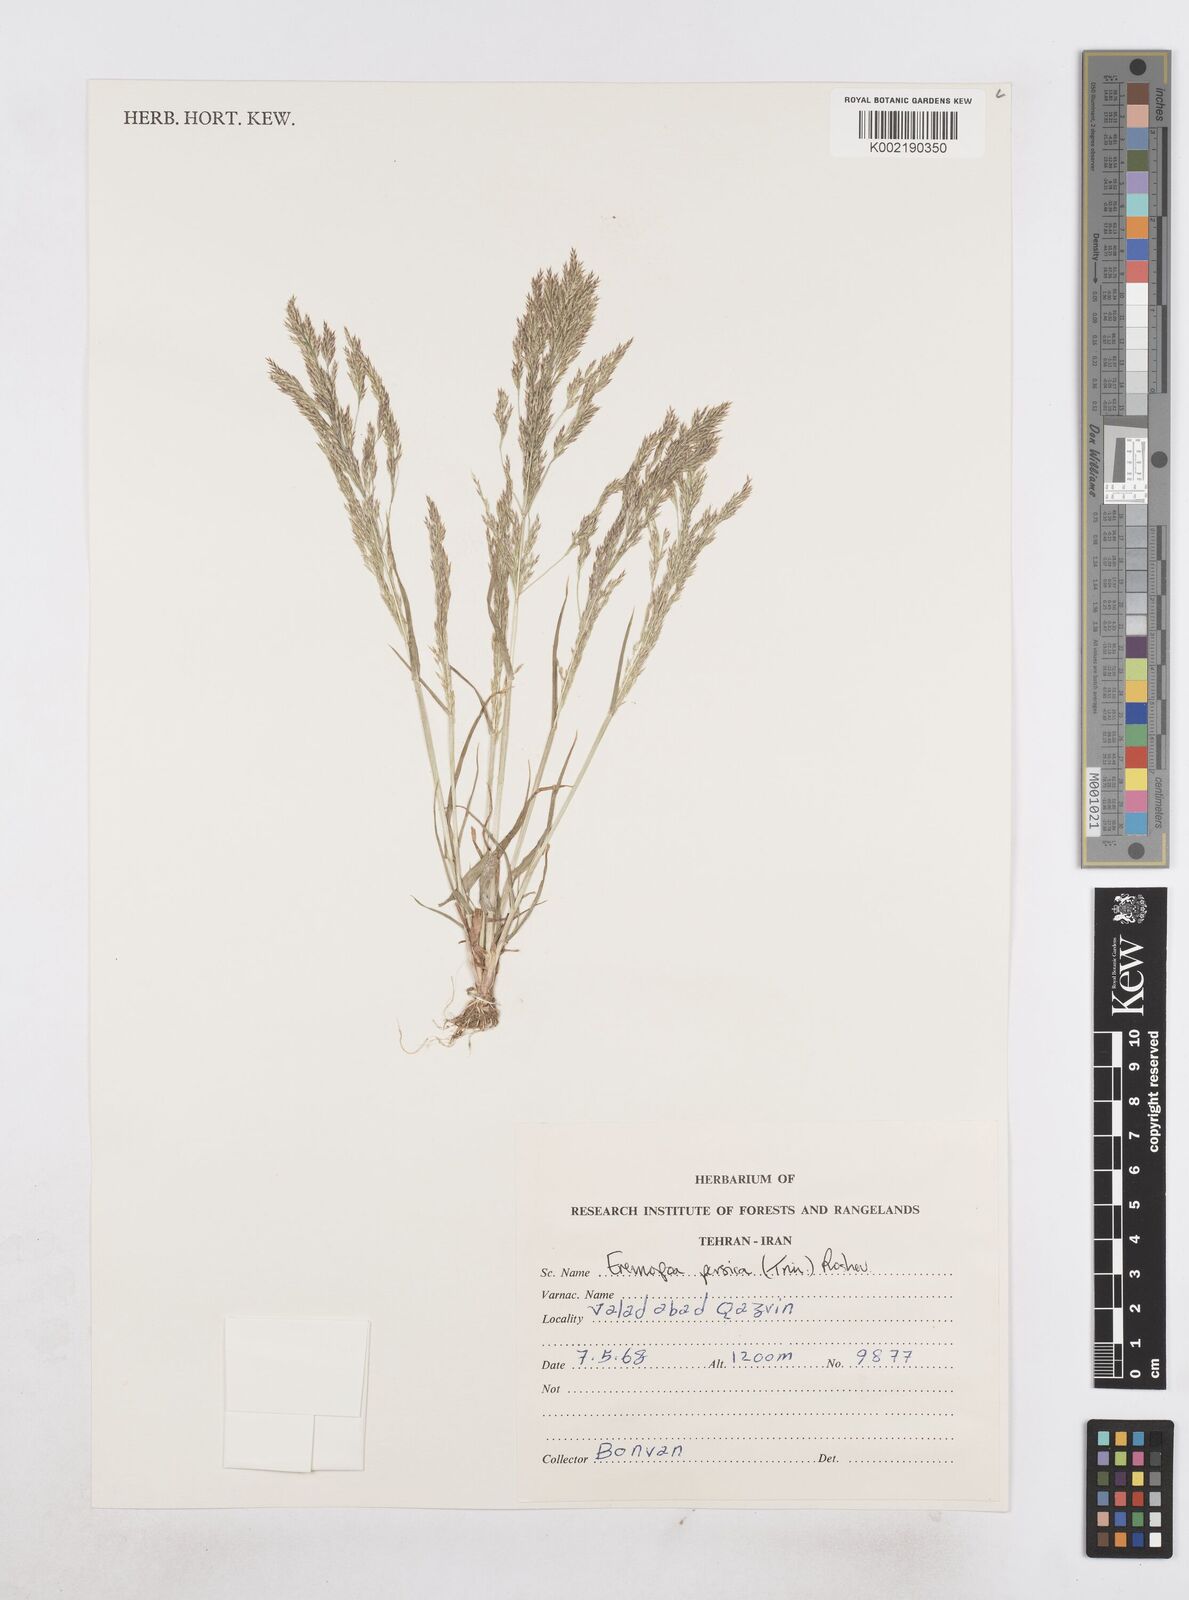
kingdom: Plantae
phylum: Tracheophyta
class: Liliopsida
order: Poales
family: Poaceae
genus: Poa
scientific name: Poa persica
